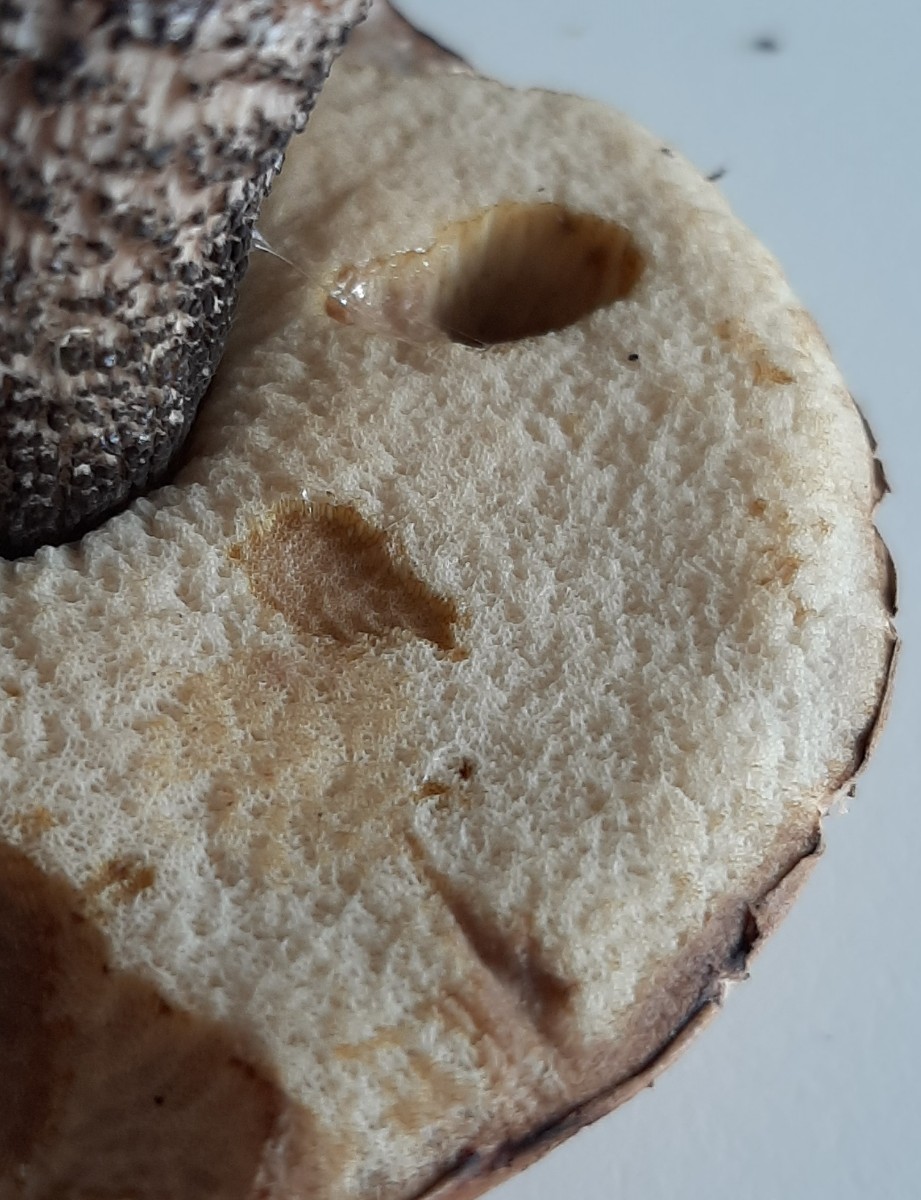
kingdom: Fungi
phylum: Basidiomycota
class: Agaricomycetes
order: Boletales
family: Boletaceae
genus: Leccinum
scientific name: Leccinum versipelle
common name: orange skælrørhat
